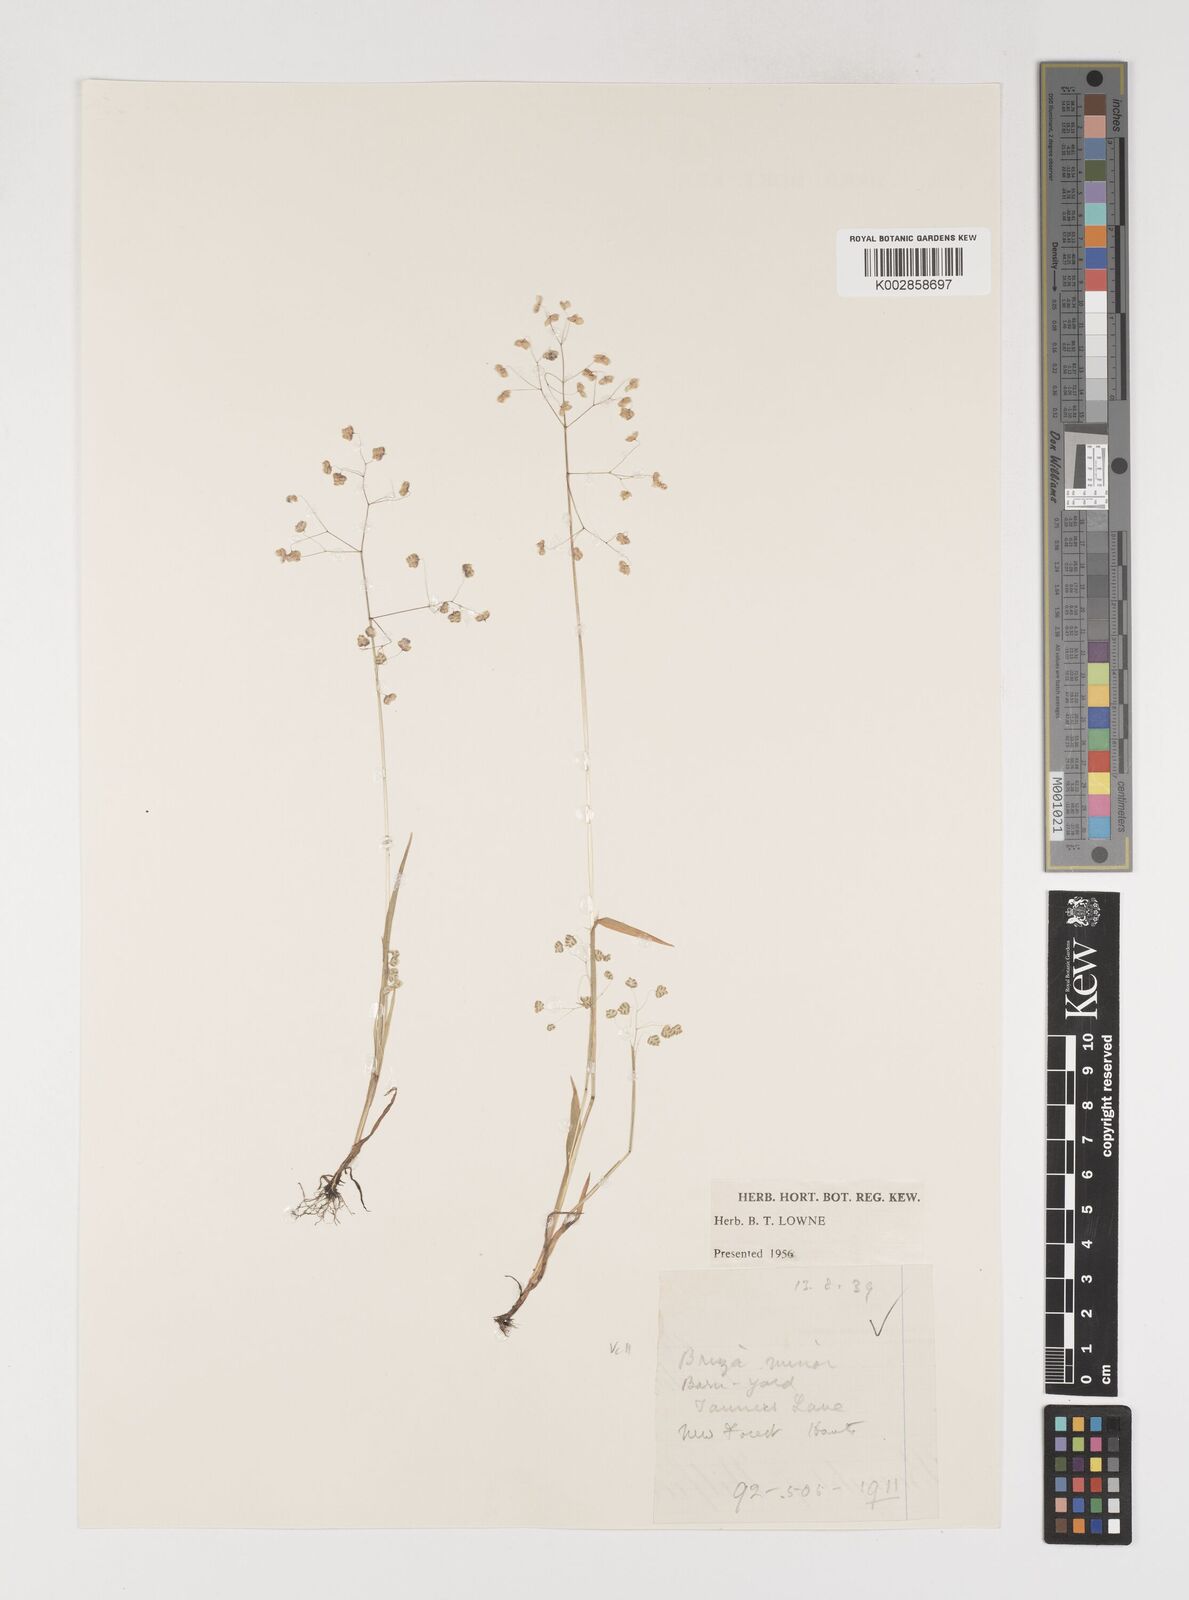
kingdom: Plantae
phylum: Tracheophyta
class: Liliopsida
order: Poales
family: Poaceae
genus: Briza
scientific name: Briza minor
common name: Lesser quaking-grass
